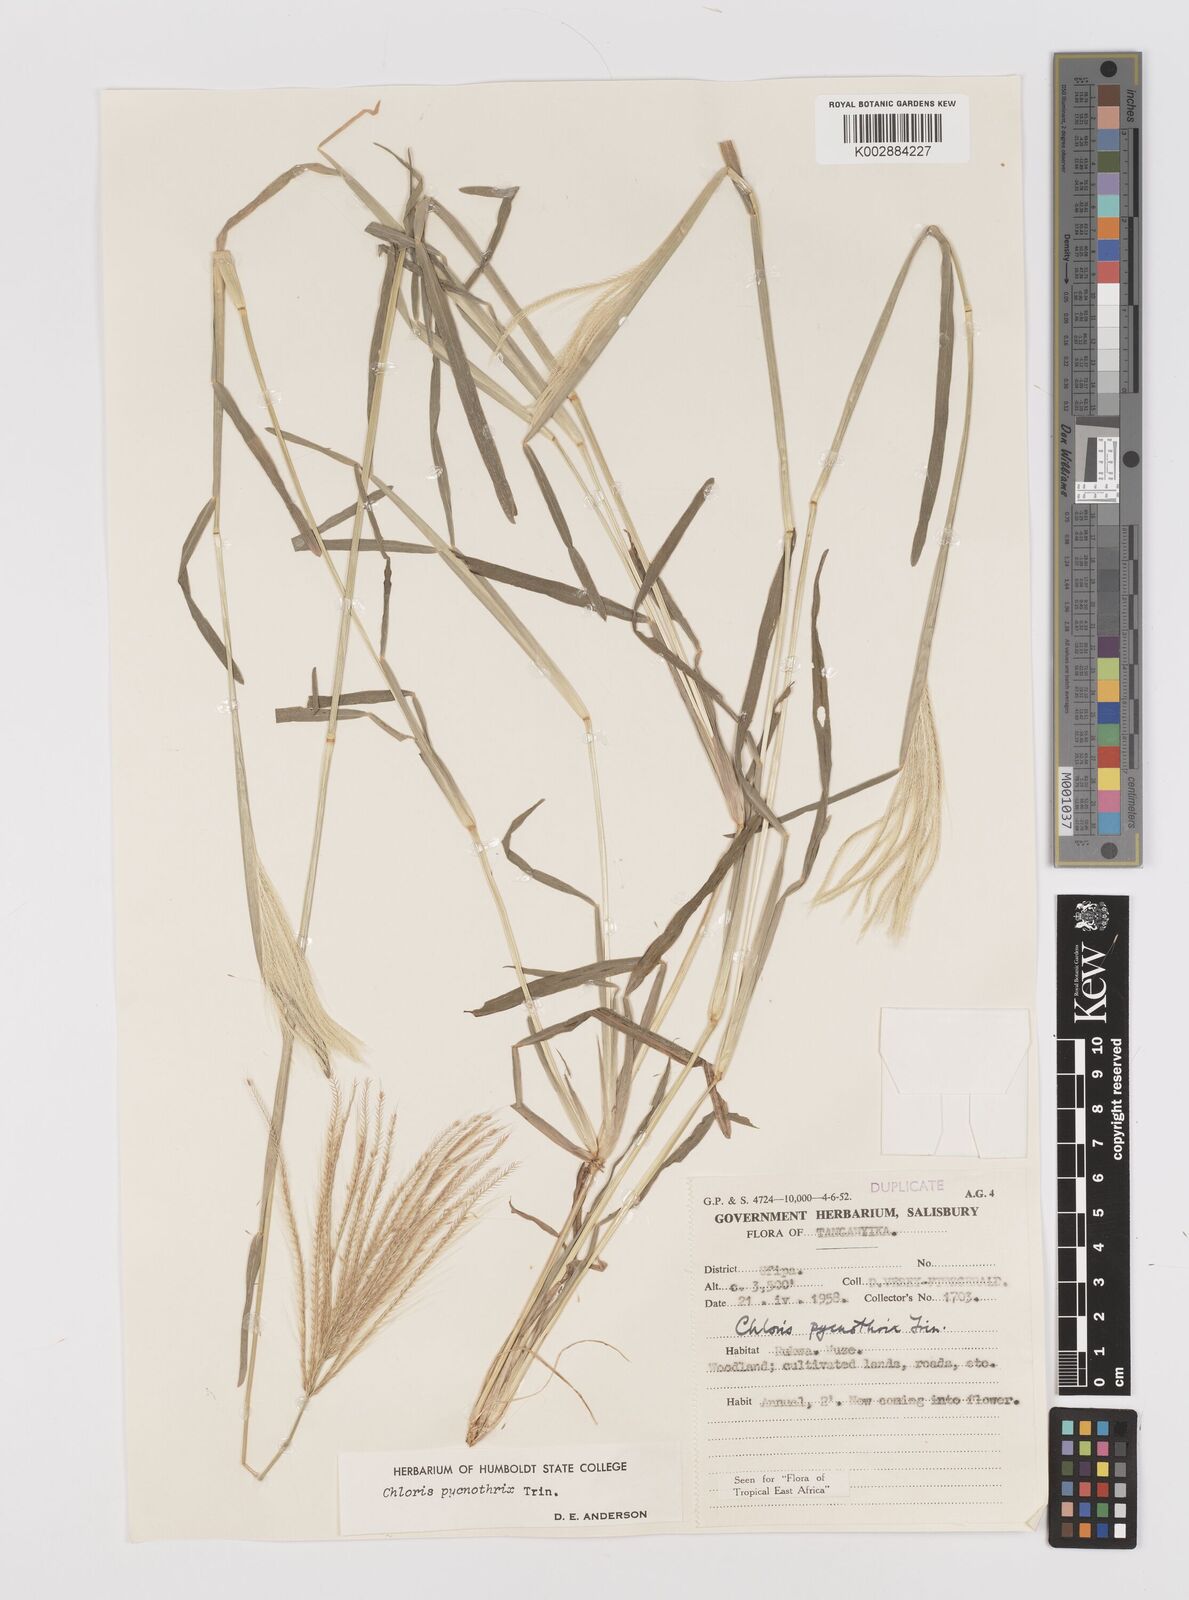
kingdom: Plantae
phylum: Tracheophyta
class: Liliopsida
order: Poales
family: Poaceae
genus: Chloris
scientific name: Chloris pycnothrix
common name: Spiderweb chloris
